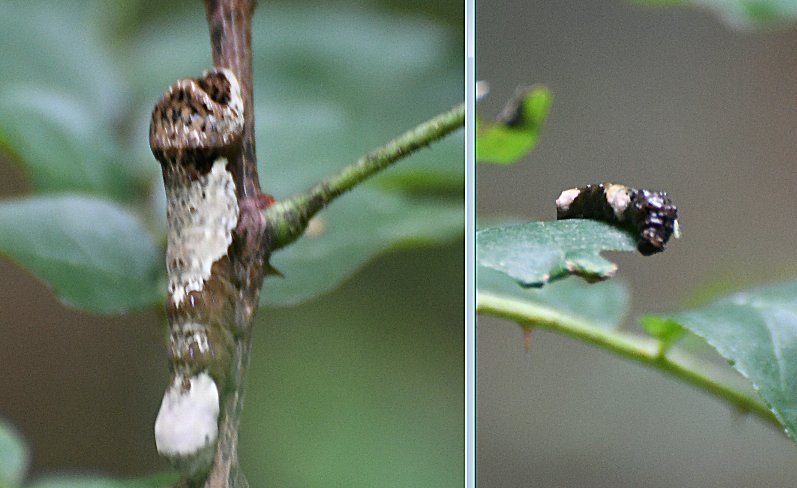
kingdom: Animalia
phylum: Arthropoda
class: Insecta
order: Lepidoptera
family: Papilionidae
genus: Papilio
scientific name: Papilio cresphontes
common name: Eastern Giant Swallowtail
